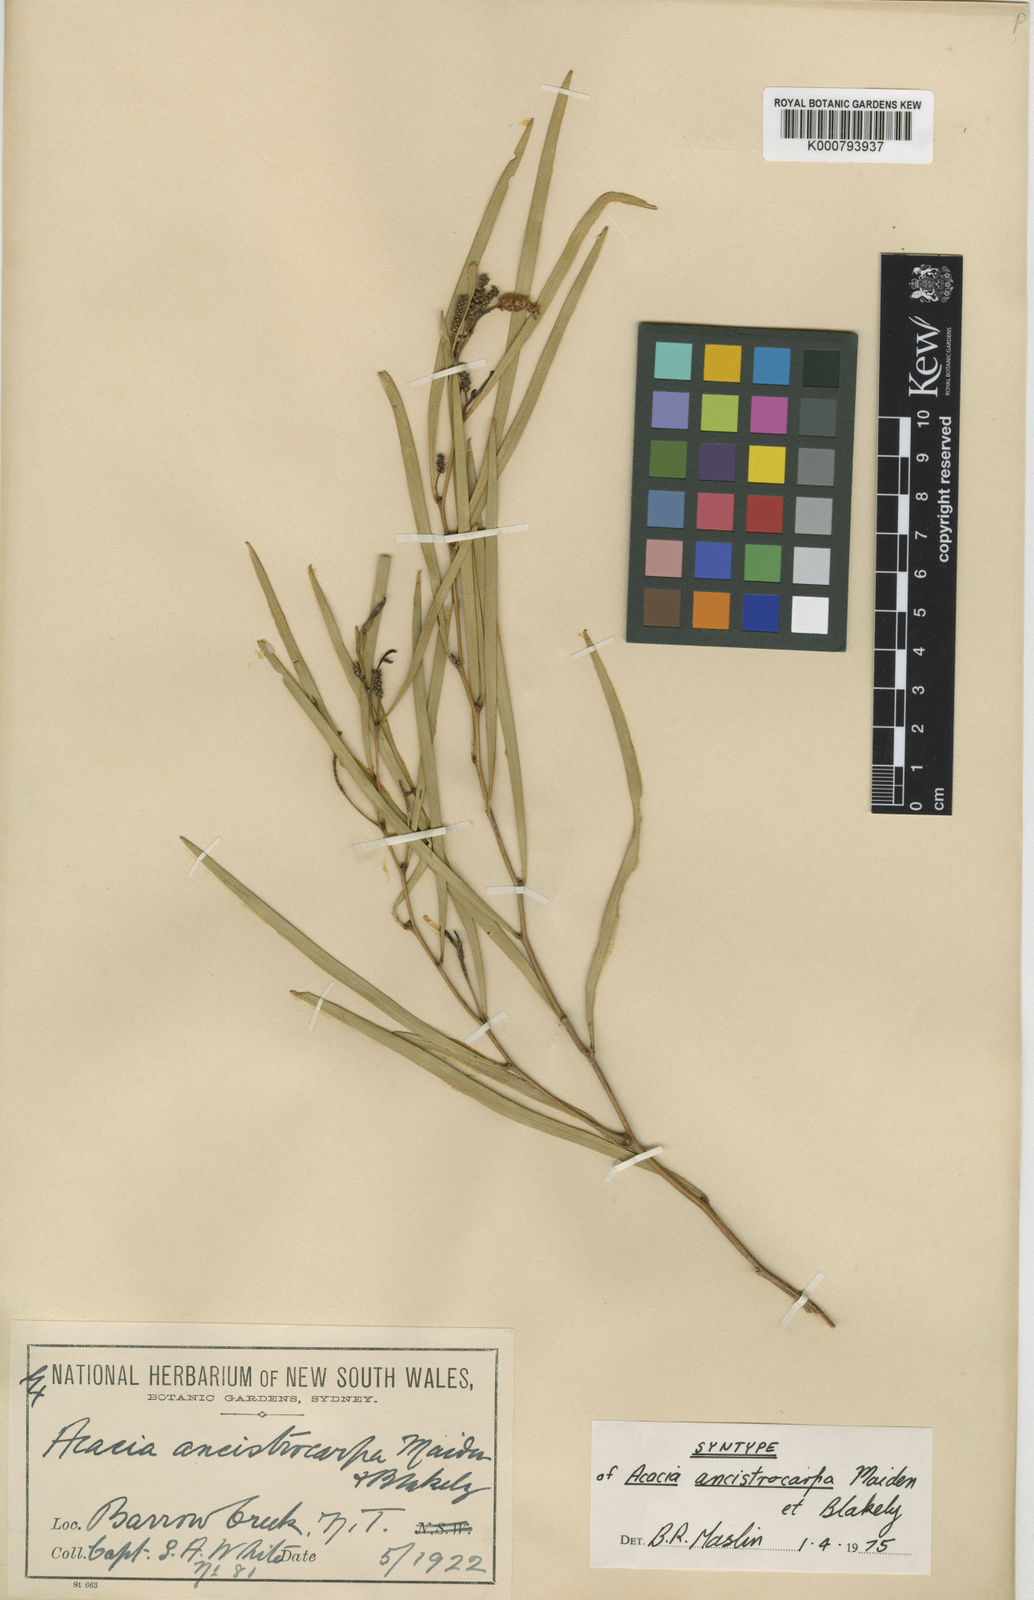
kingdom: Plantae
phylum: Tracheophyta
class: Magnoliopsida
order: Fabales
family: Fabaceae
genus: Acacia
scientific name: Acacia ancistrocarpa
